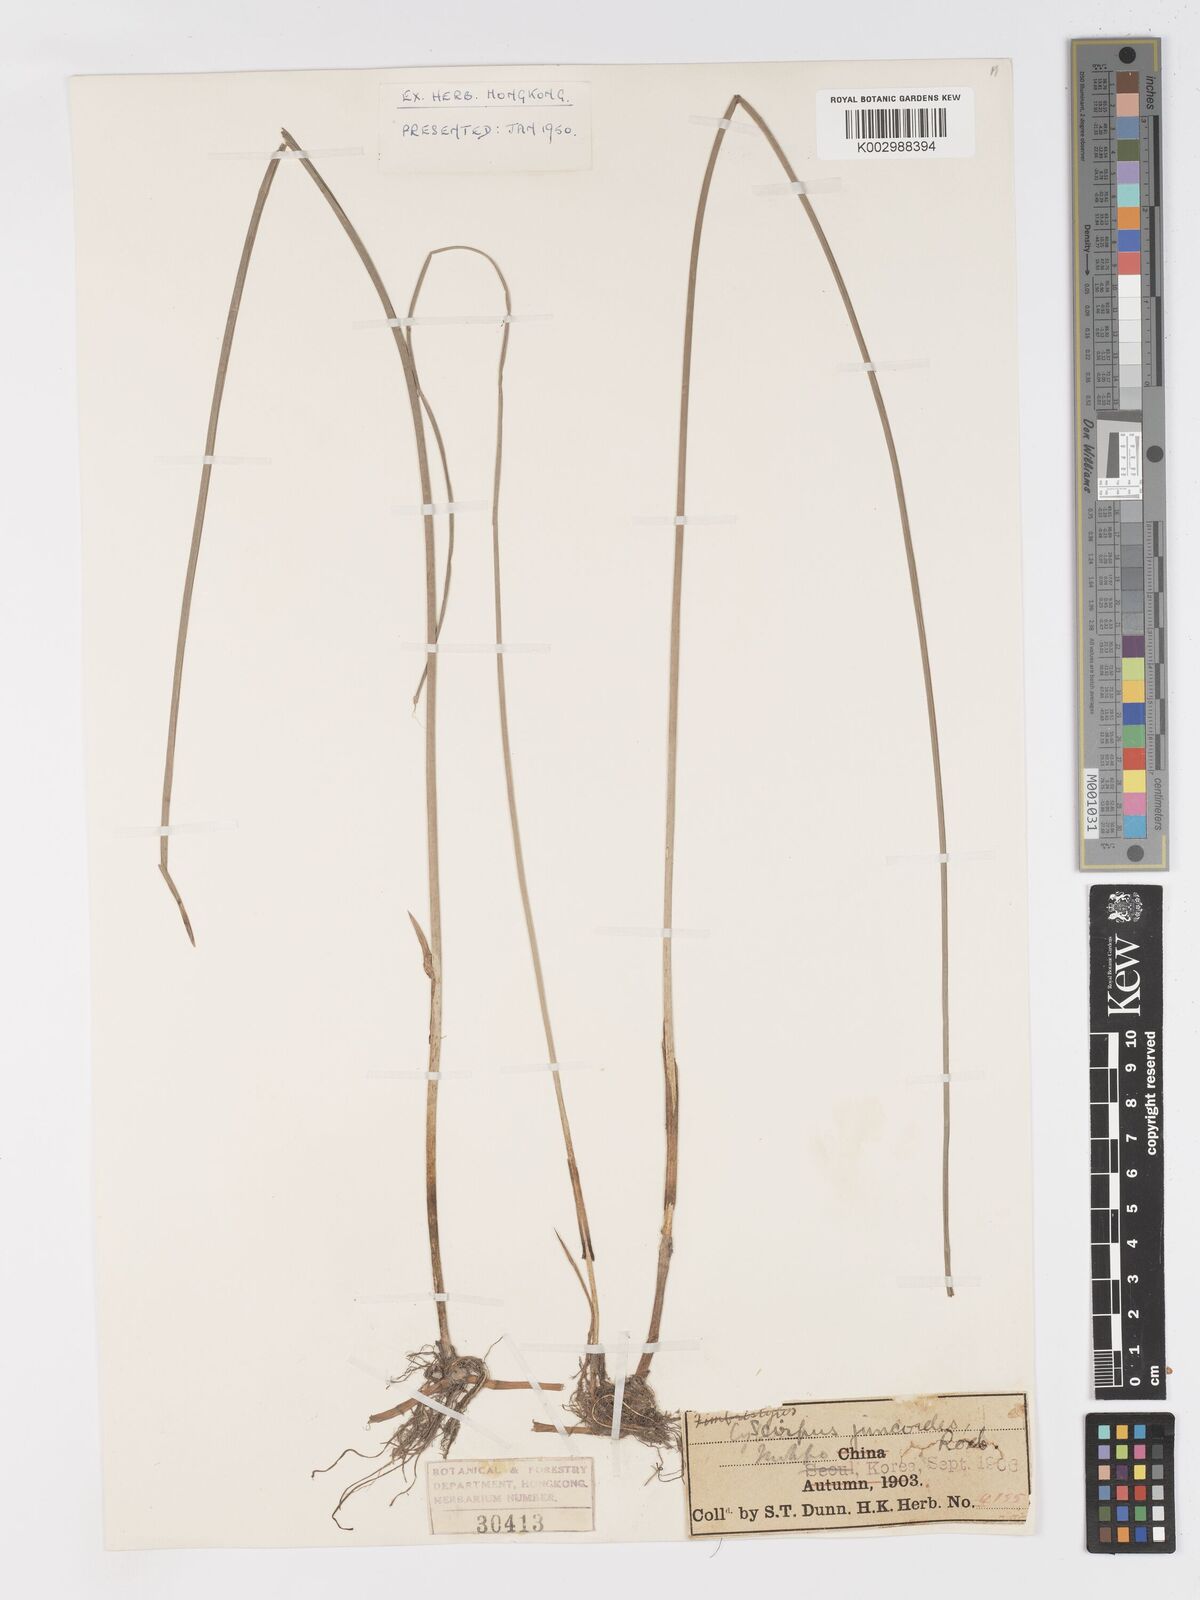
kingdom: Plantae
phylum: Tracheophyta
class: Liliopsida
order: Poales
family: Cyperaceae
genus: Schoenoplectiella
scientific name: Schoenoplectiella erecta
